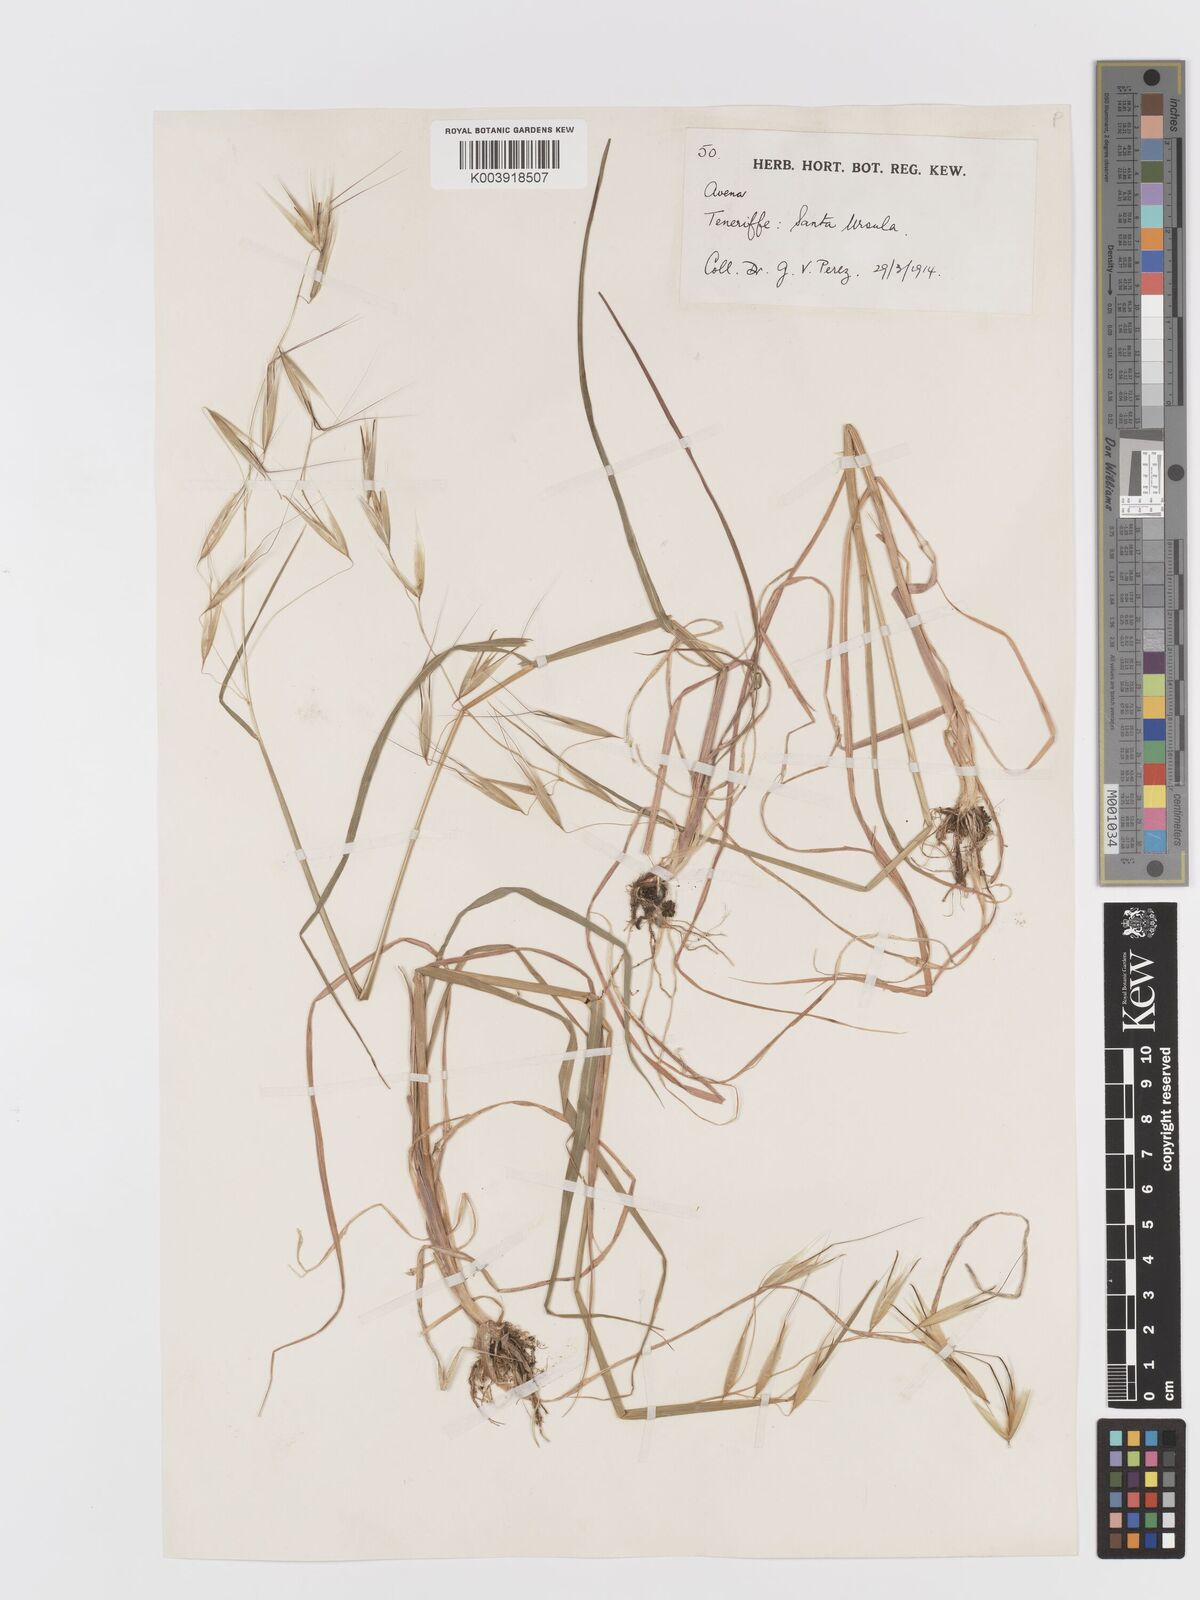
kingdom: Plantae
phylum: Tracheophyta
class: Liliopsida
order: Poales
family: Poaceae
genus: Avena
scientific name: Avena
